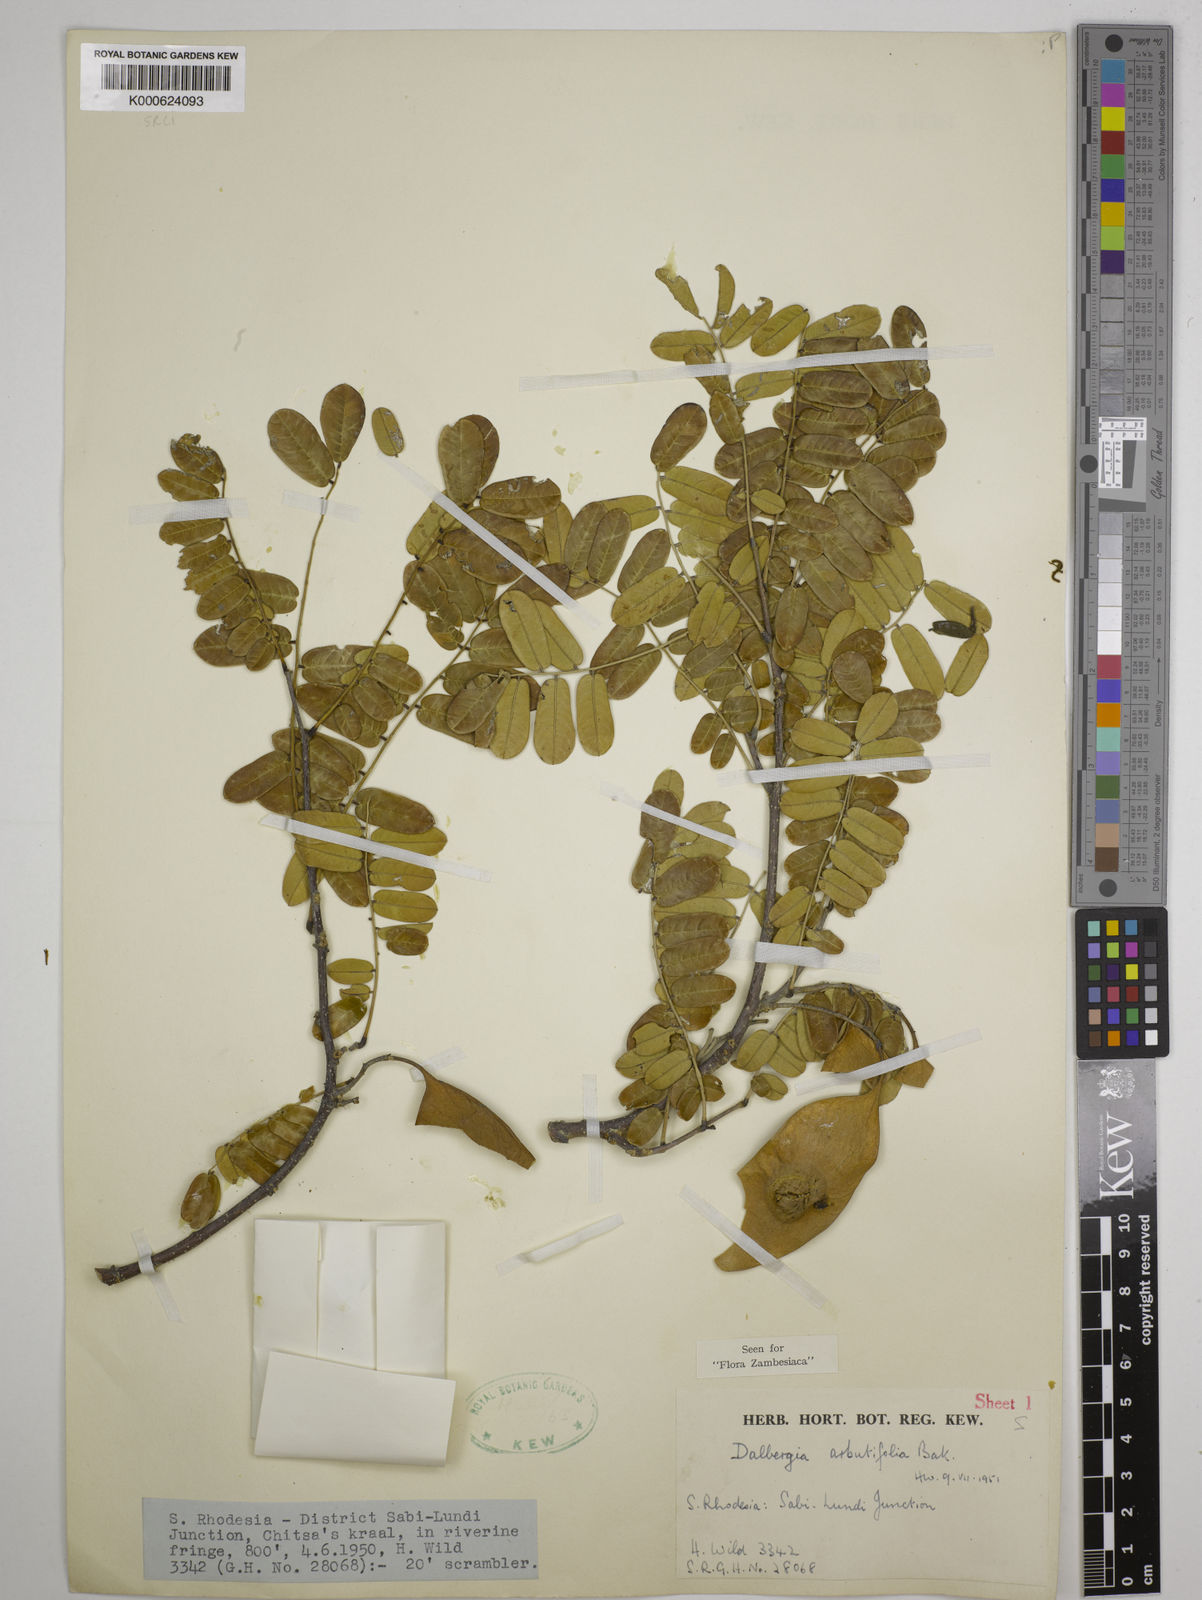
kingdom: Plantae
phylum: Tracheophyta
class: Magnoliopsida
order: Fabales
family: Fabaceae
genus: Dalbergia
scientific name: Dalbergia arbutifolia
